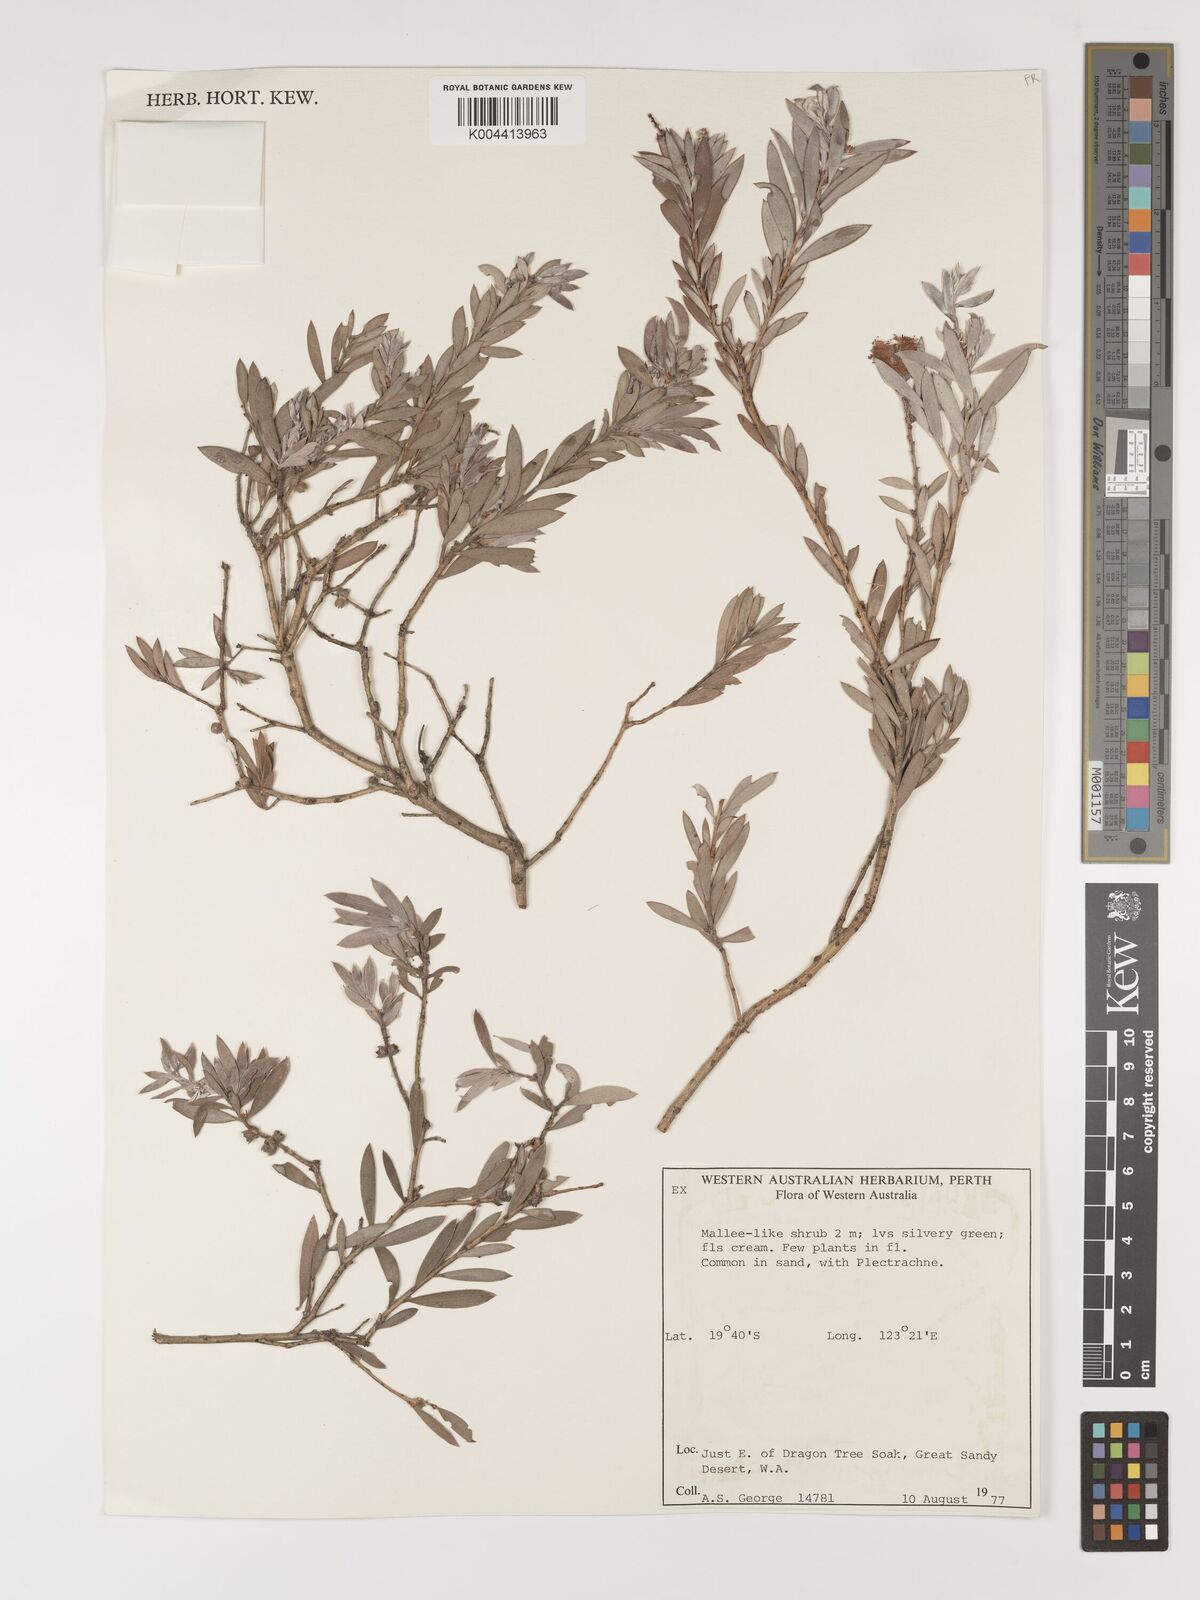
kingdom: Plantae
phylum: Tracheophyta
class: Magnoliopsida
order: Myrtales
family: Myrtaceae
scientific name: Myrtaceae
